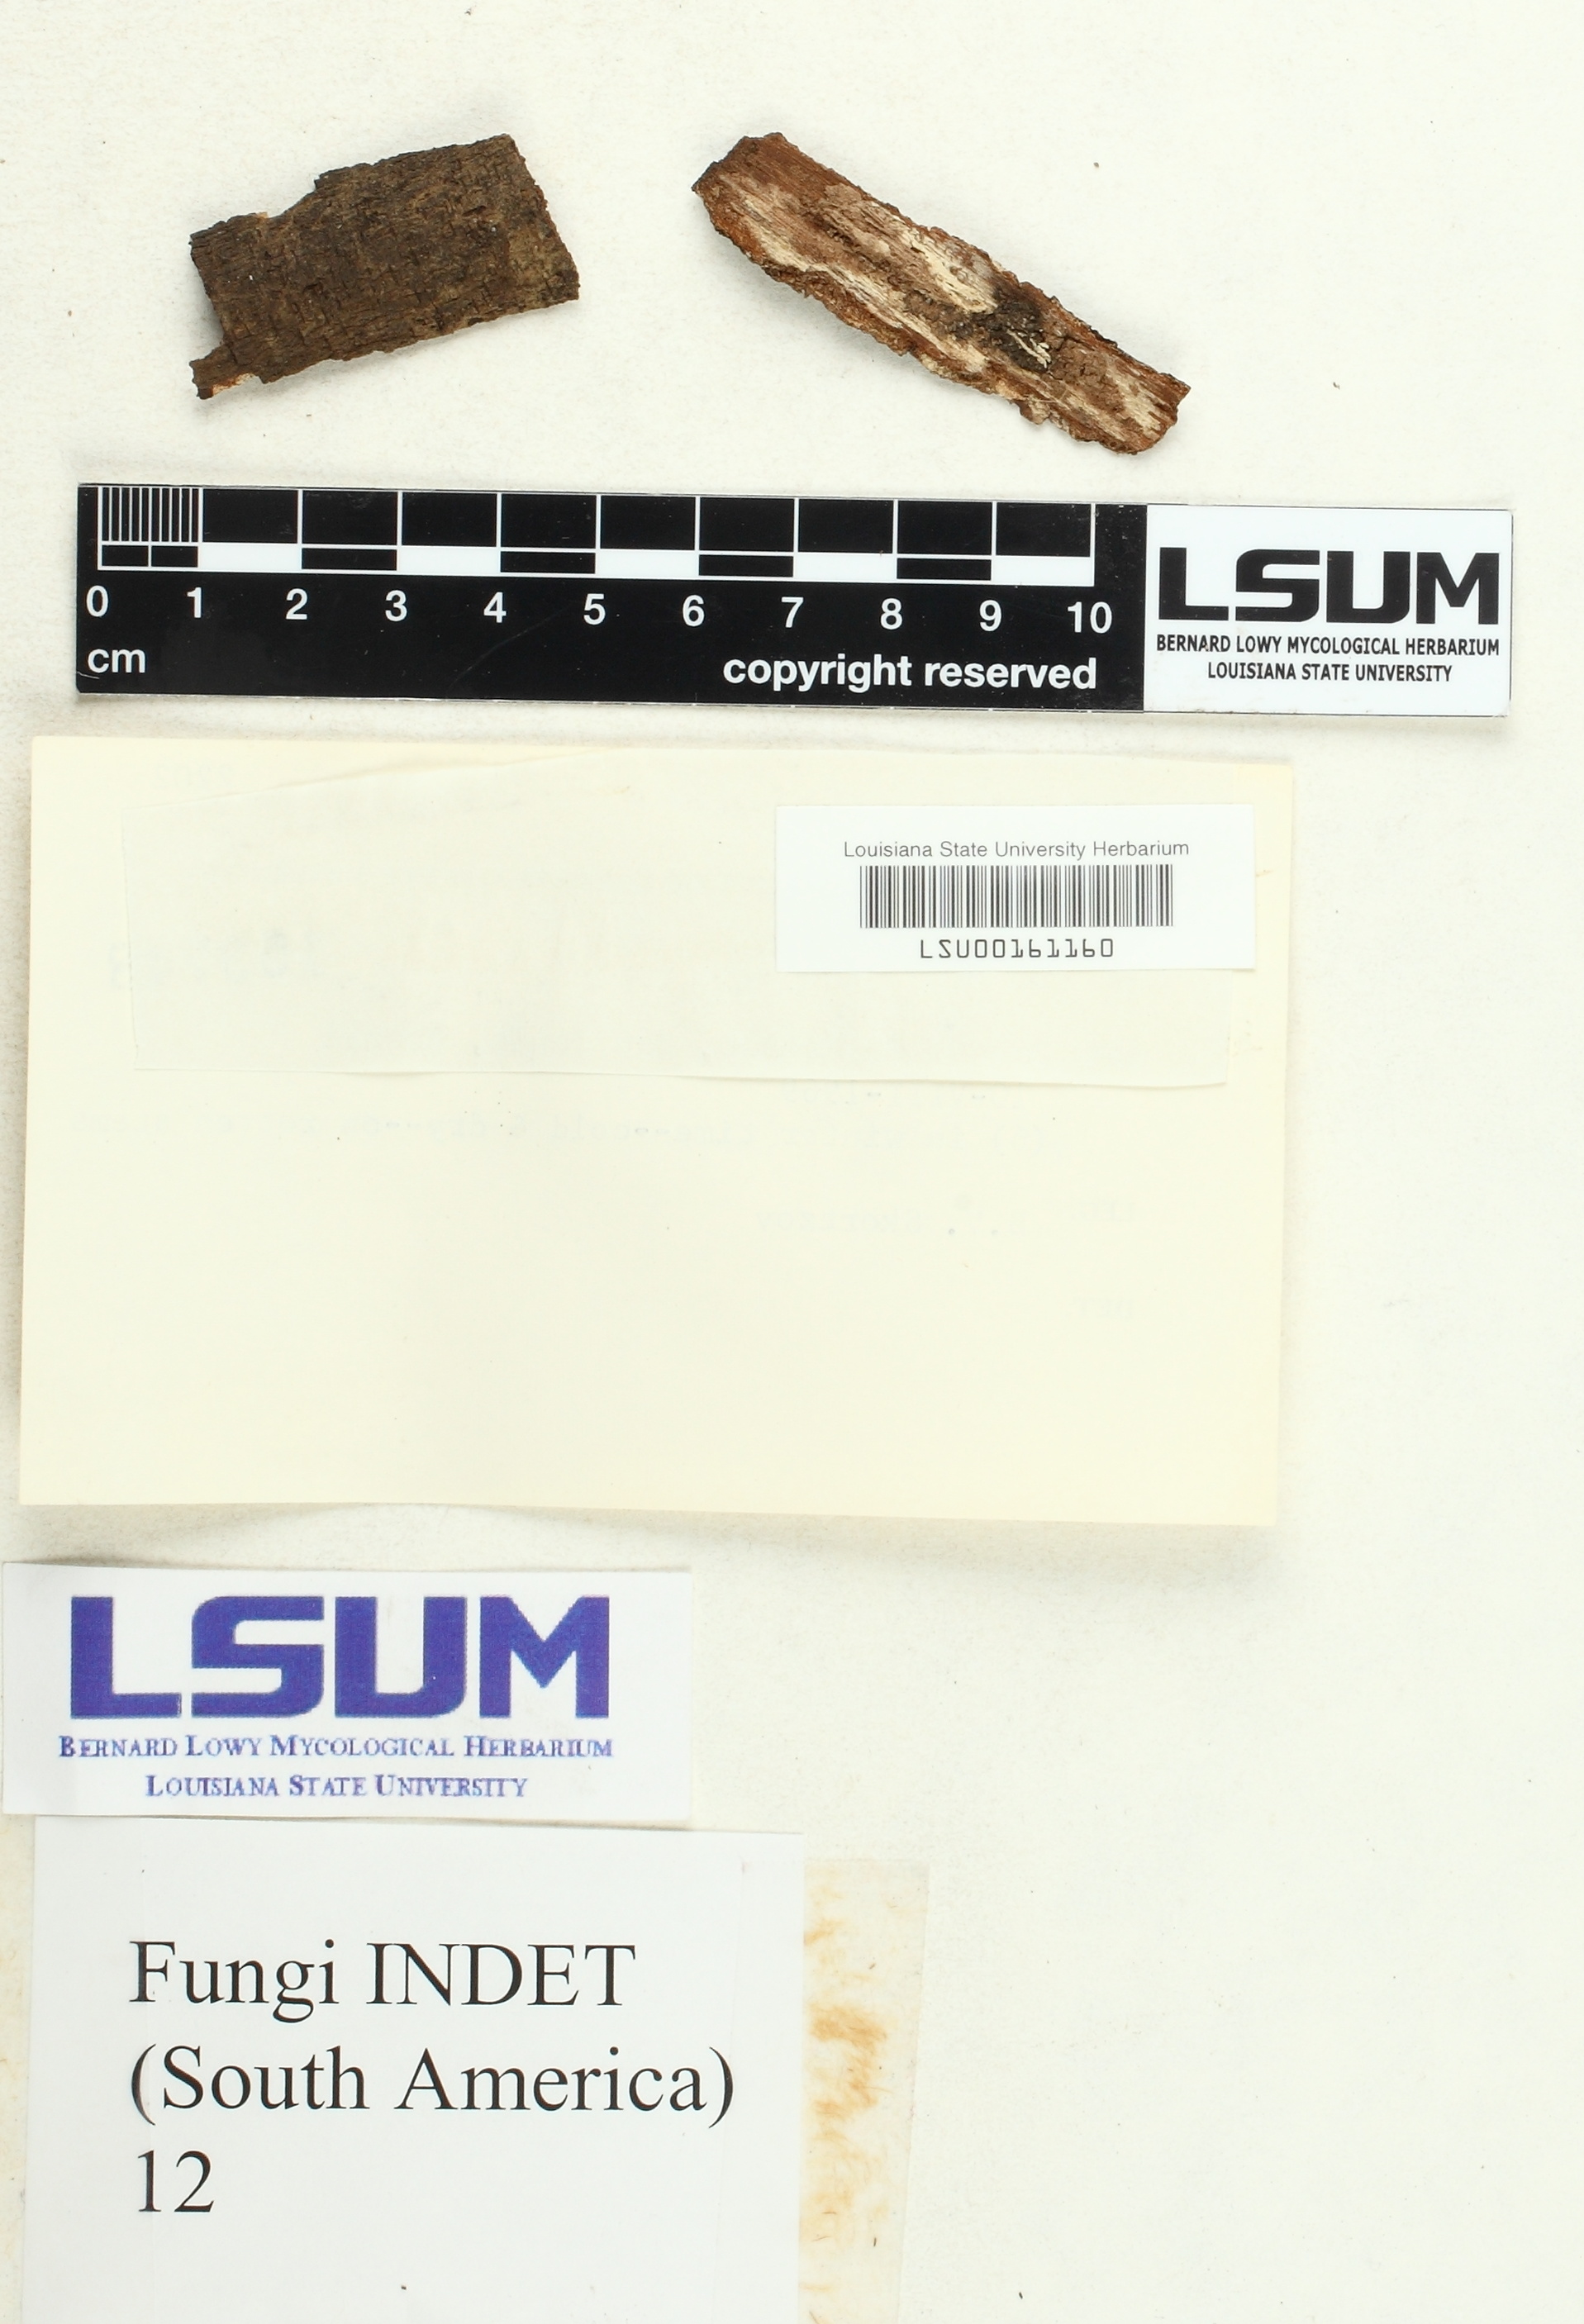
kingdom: Fungi
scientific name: Fungi
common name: Fungi
